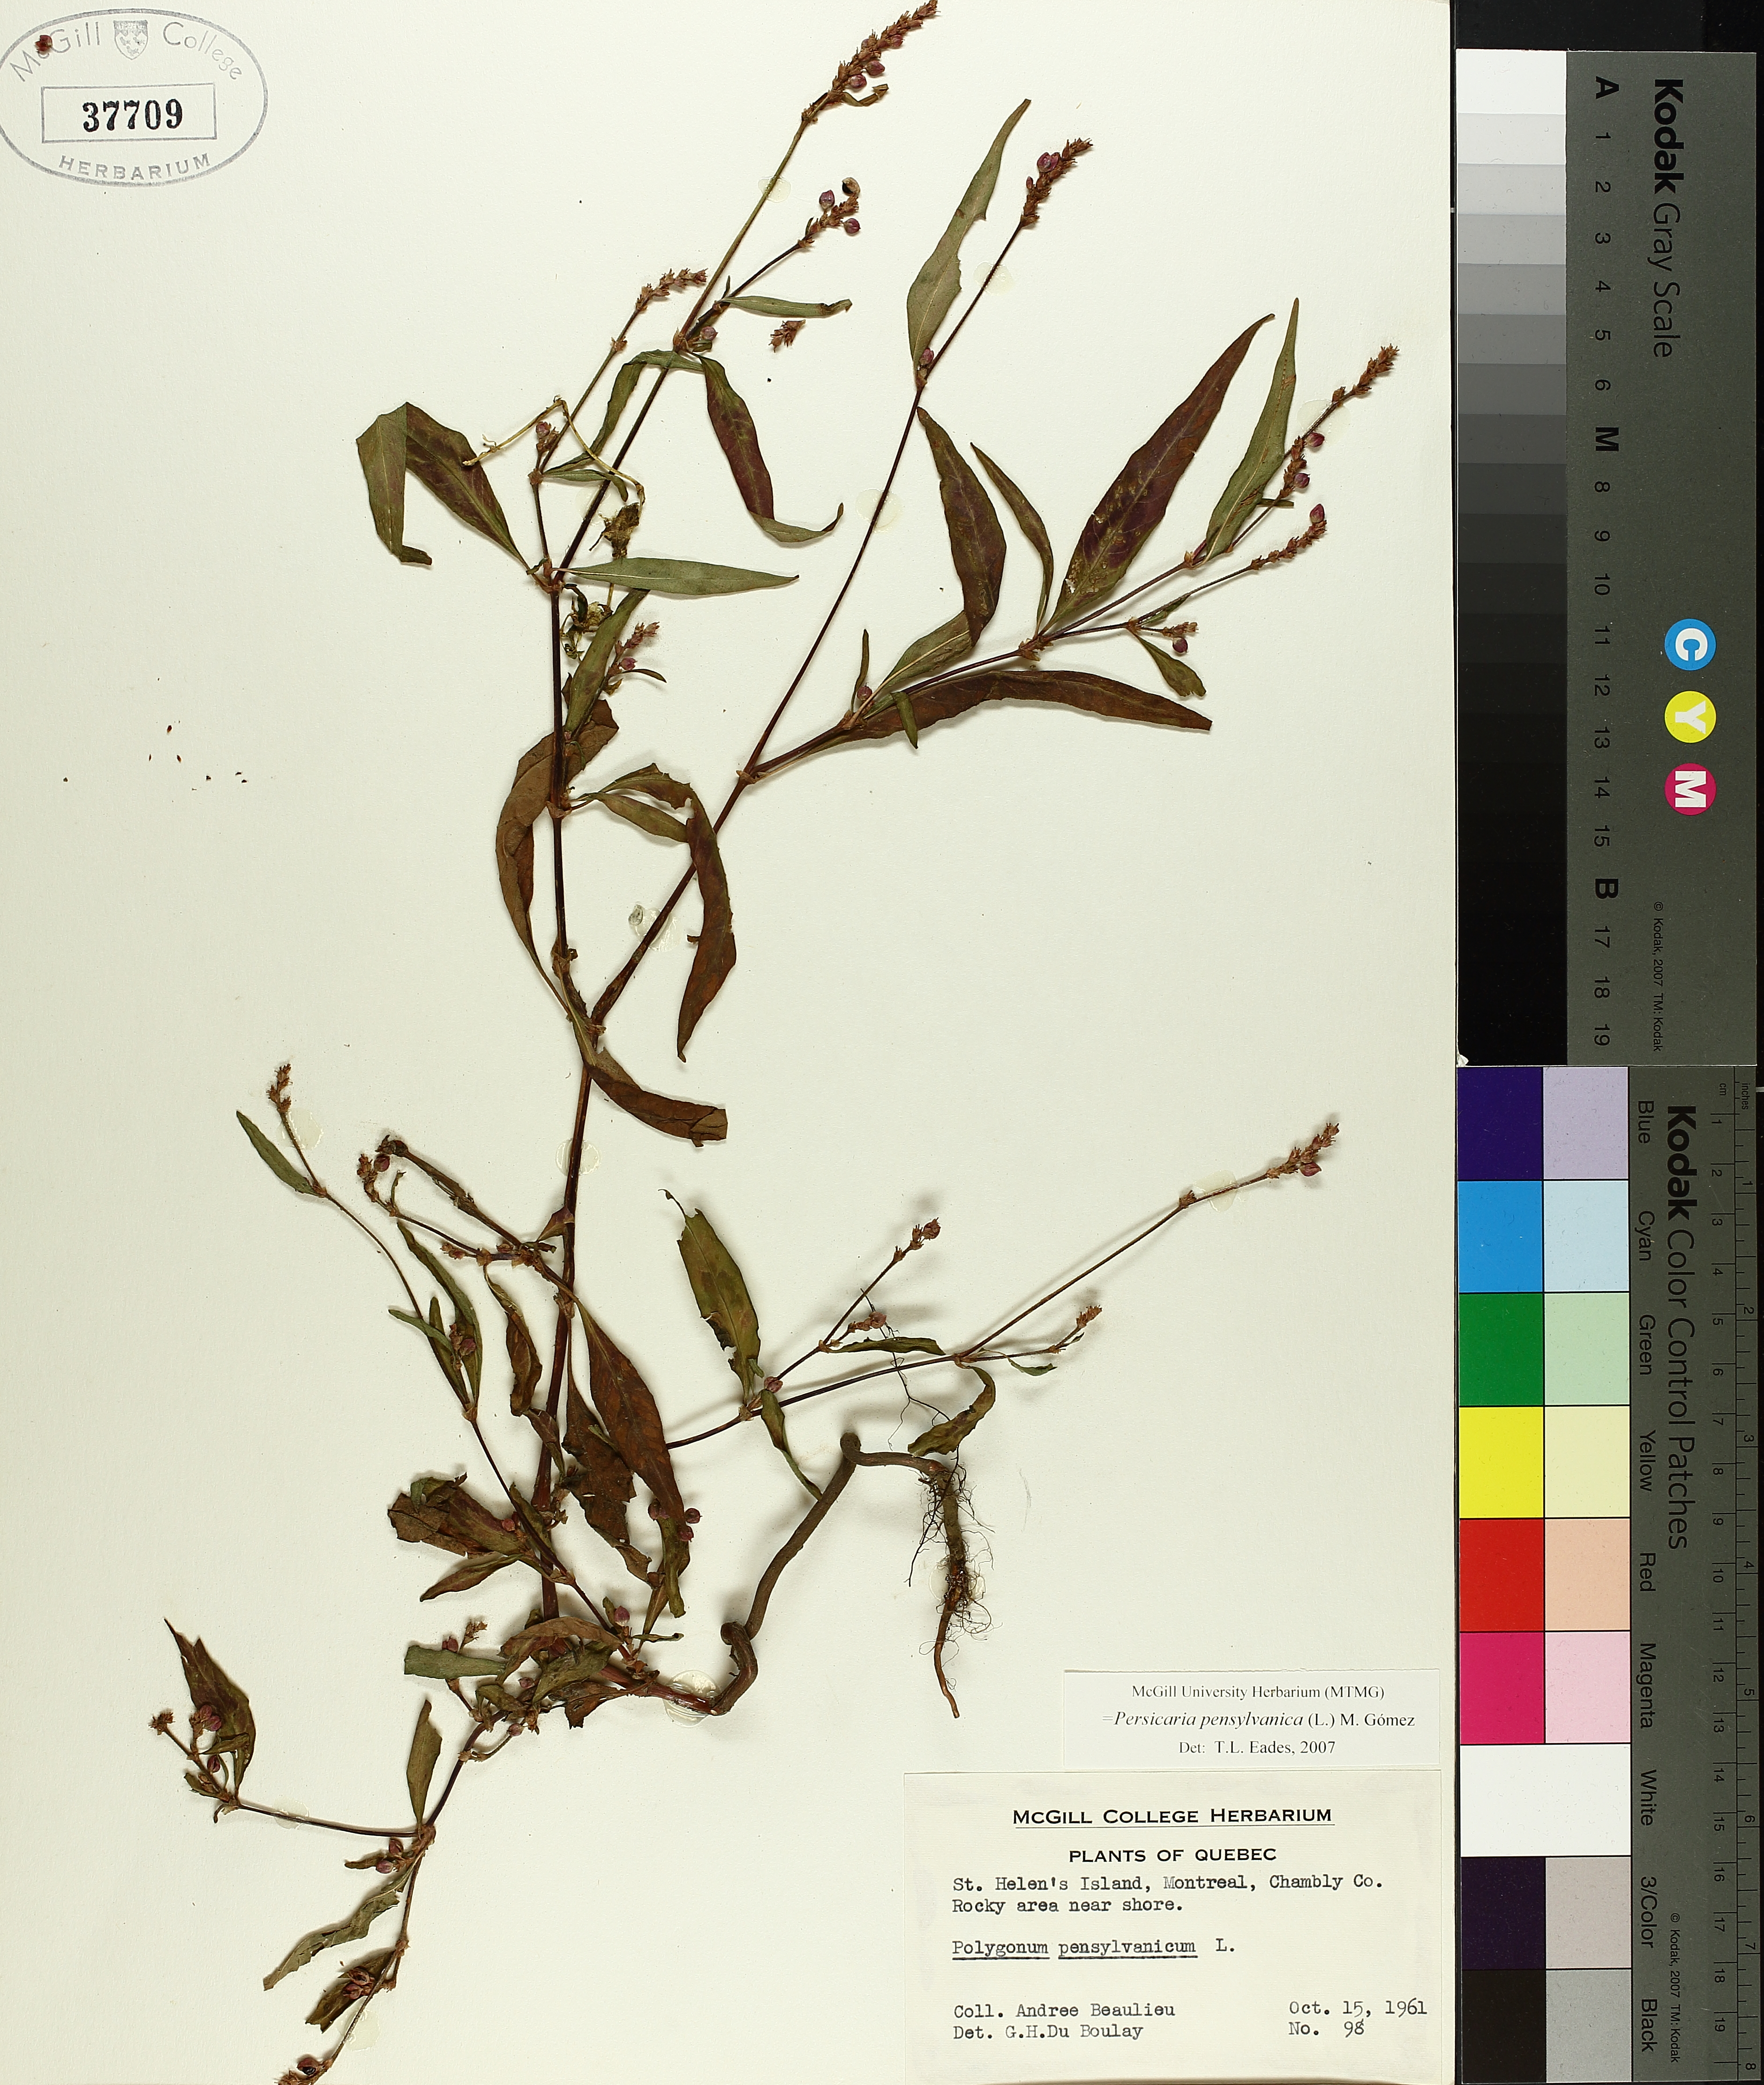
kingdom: Plantae
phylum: Tracheophyta
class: Magnoliopsida
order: Caryophyllales
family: Polygonaceae
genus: Persicaria
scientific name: Persicaria bungeana
